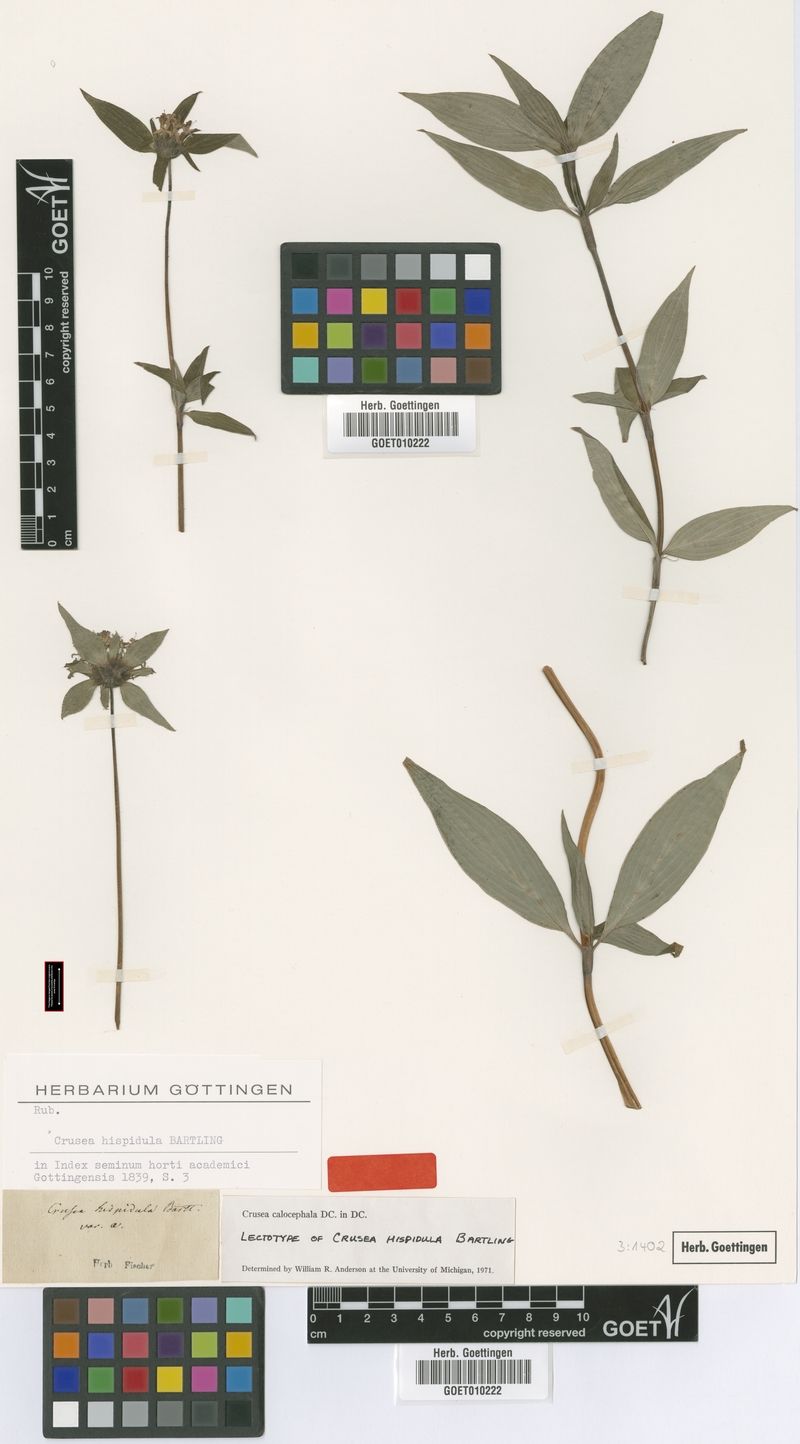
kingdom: Plantae
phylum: Tracheophyta
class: Magnoliopsida
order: Gentianales
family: Rubiaceae
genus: Crusea
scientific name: Crusea calocephala
